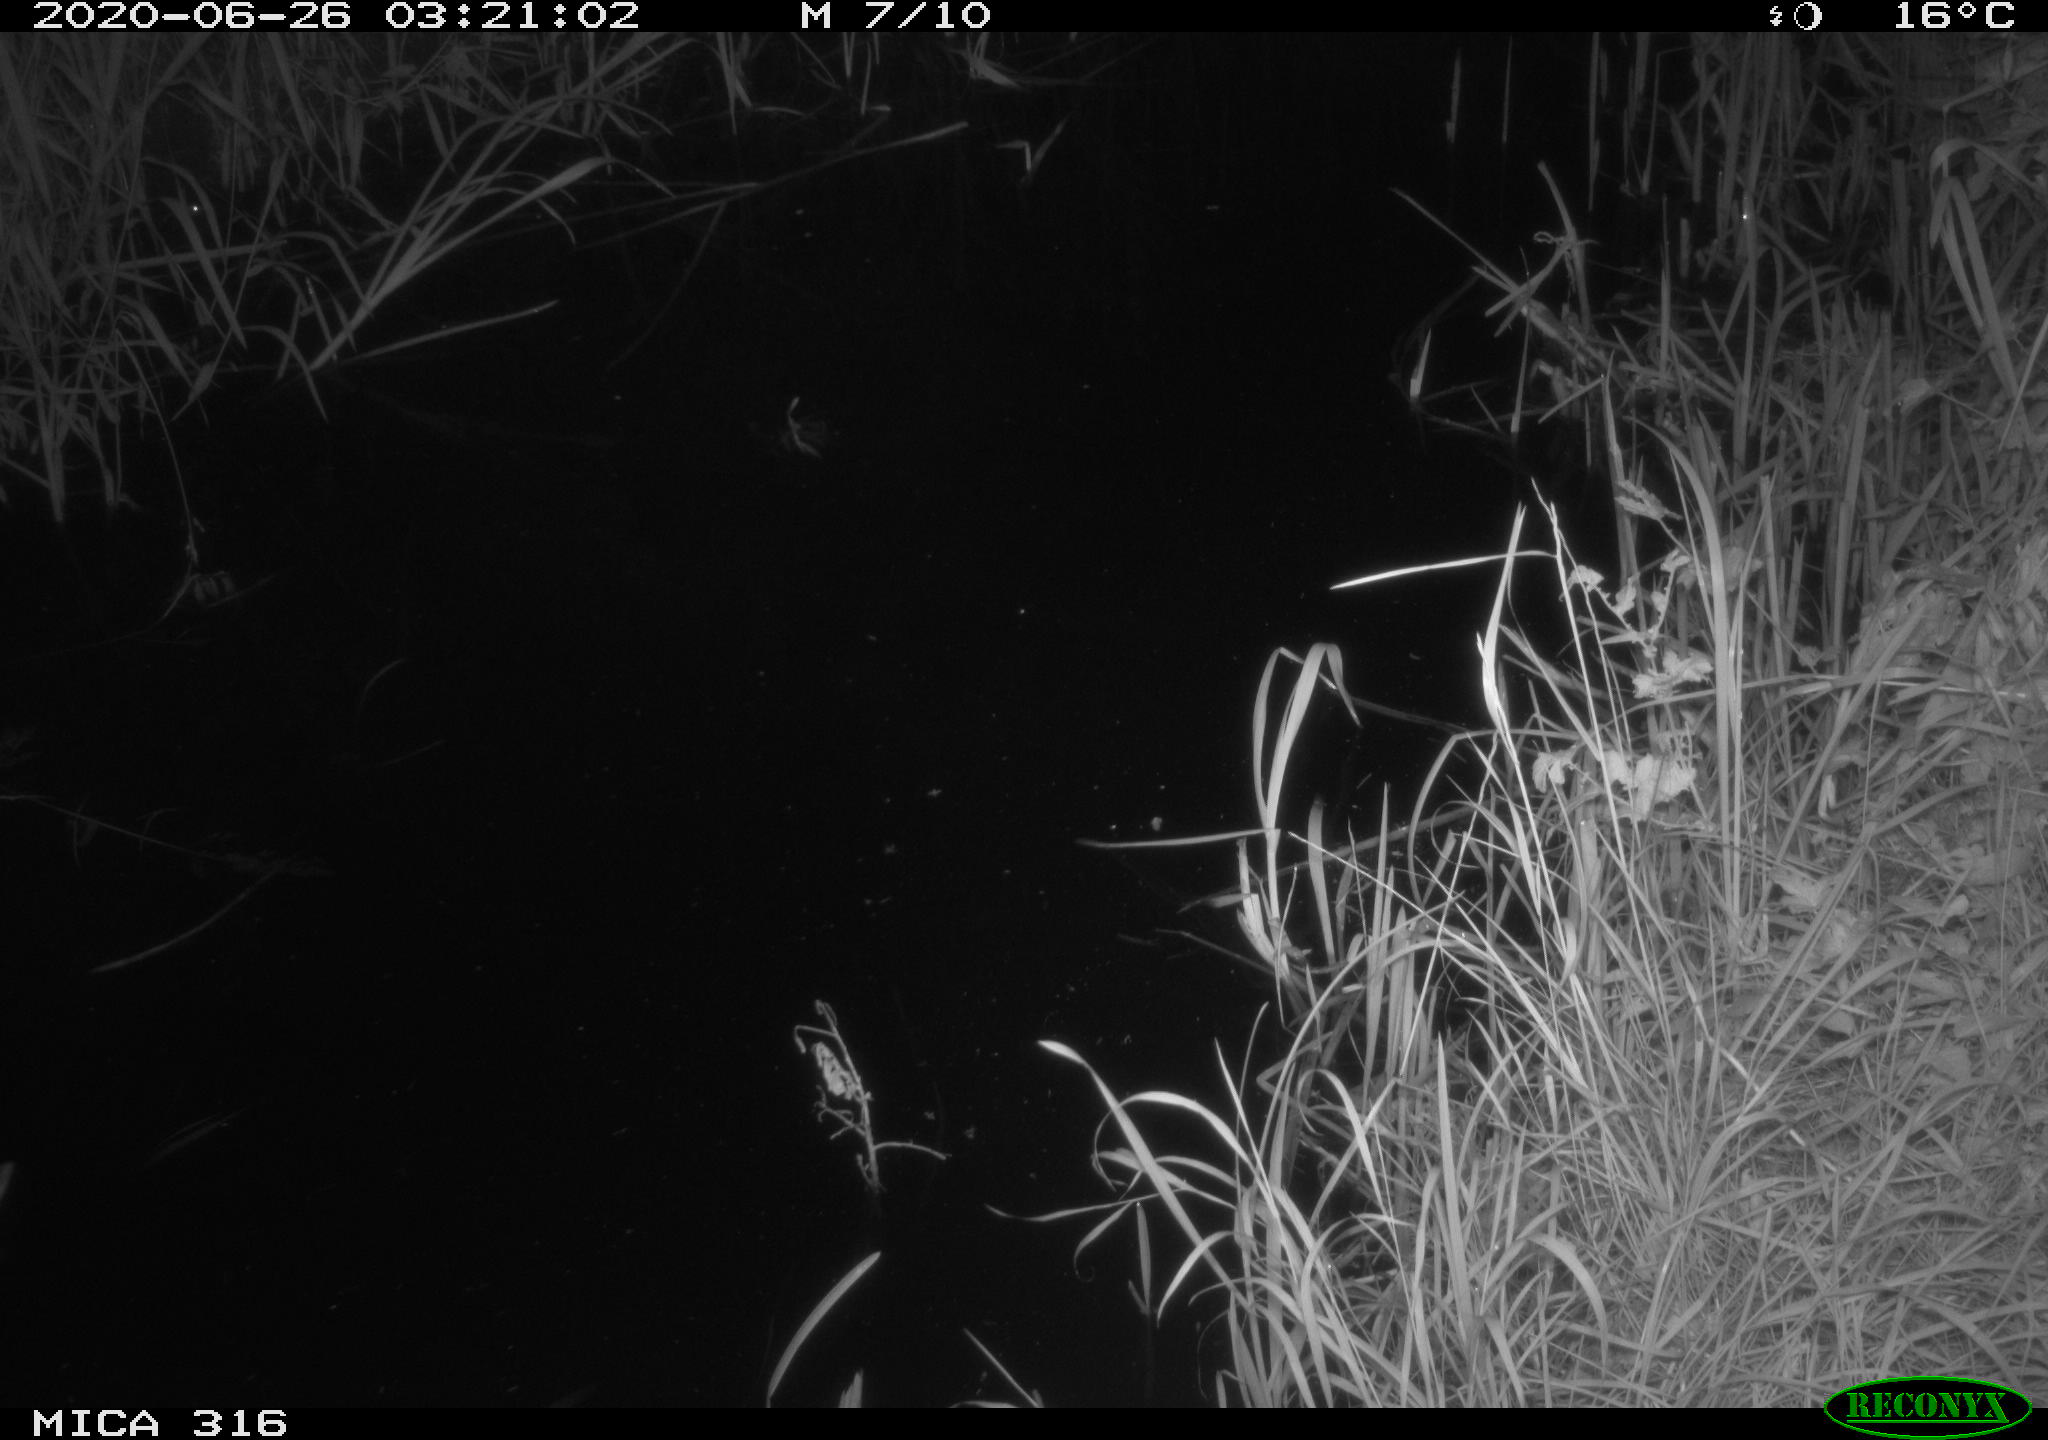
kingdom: Animalia
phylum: Chordata
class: Aves
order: Anseriformes
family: Anatidae
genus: Anas
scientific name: Anas platyrhynchos
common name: Mallard
